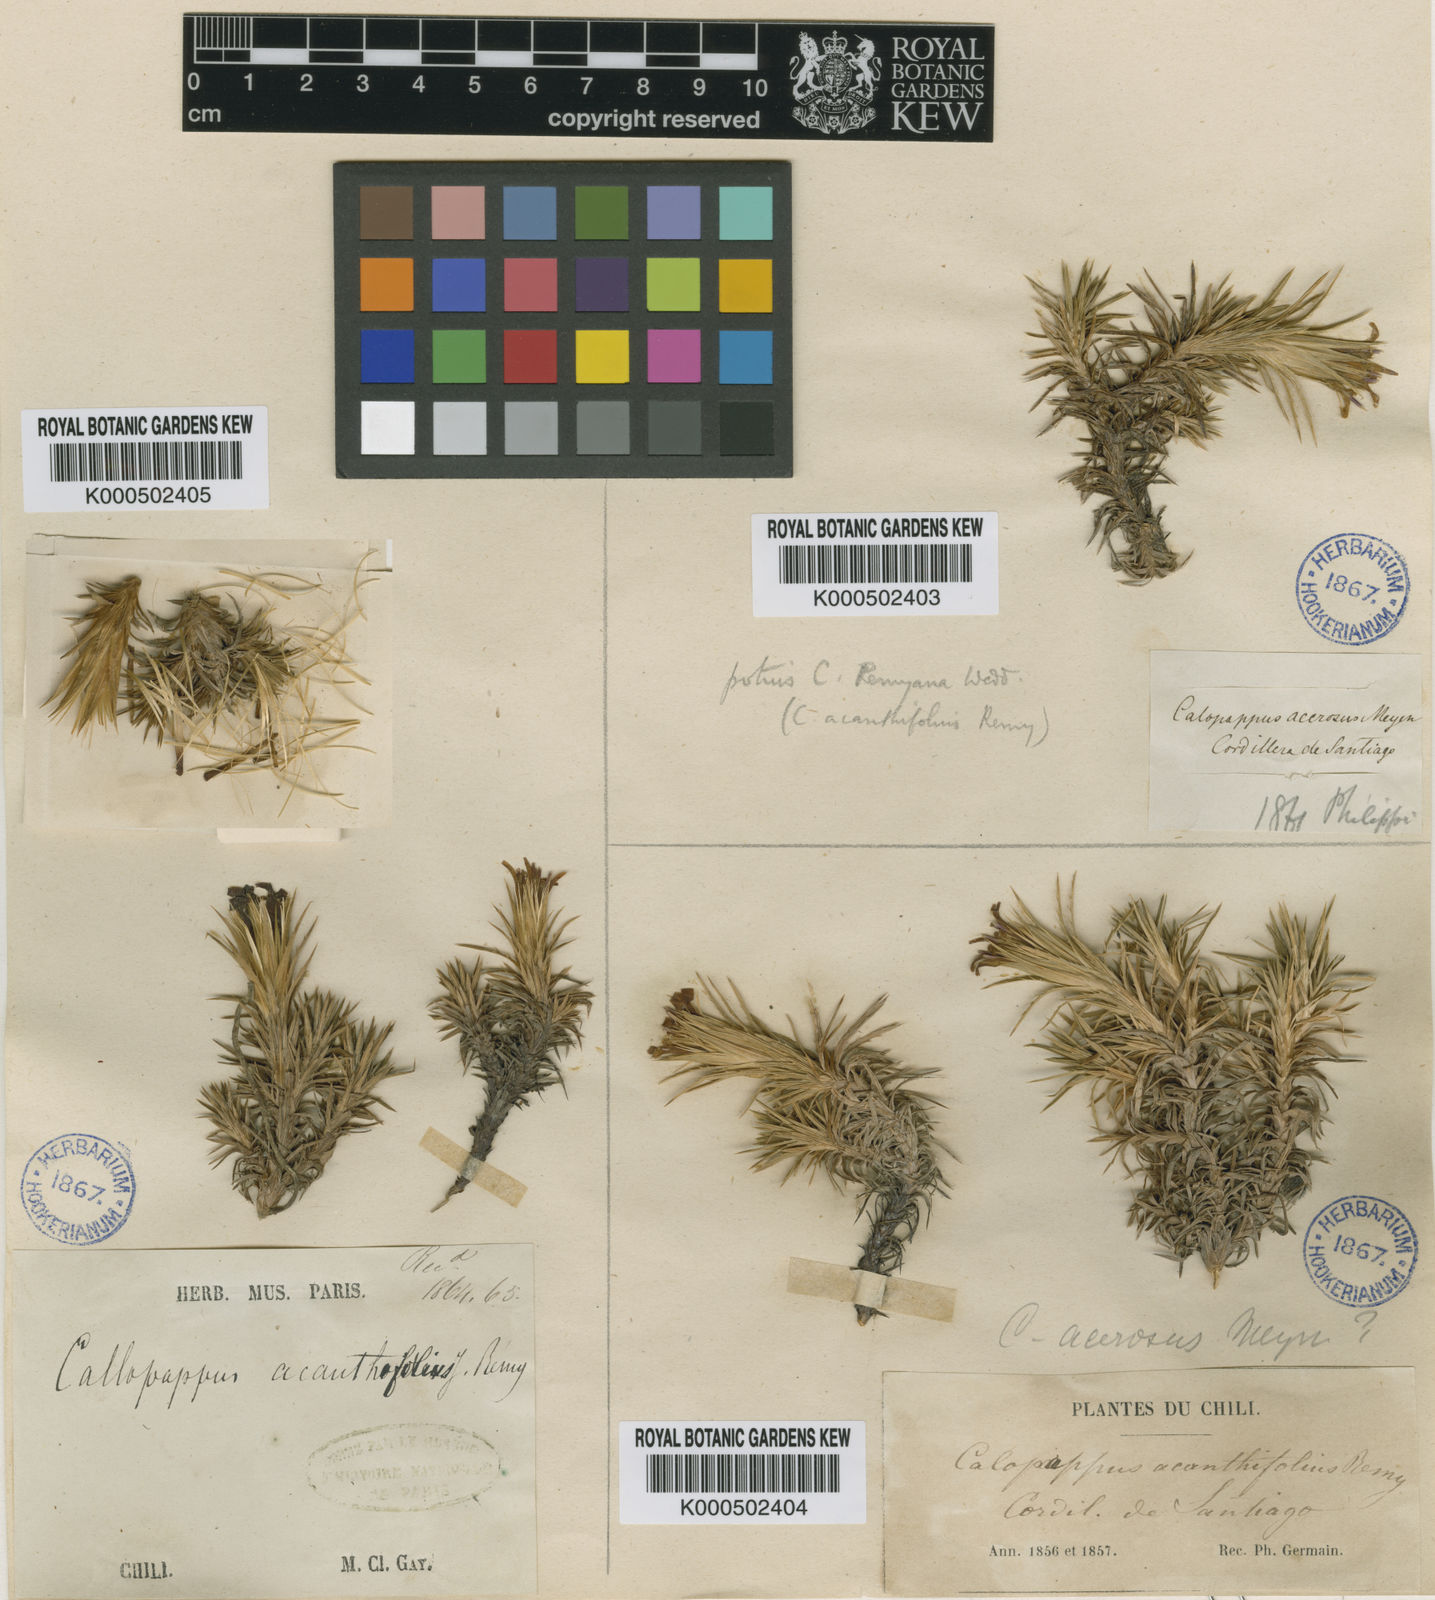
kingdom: Plantae
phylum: Tracheophyta
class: Magnoliopsida
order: Asterales
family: Asteraceae
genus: Nassauvia
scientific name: Nassauvia acerosa
